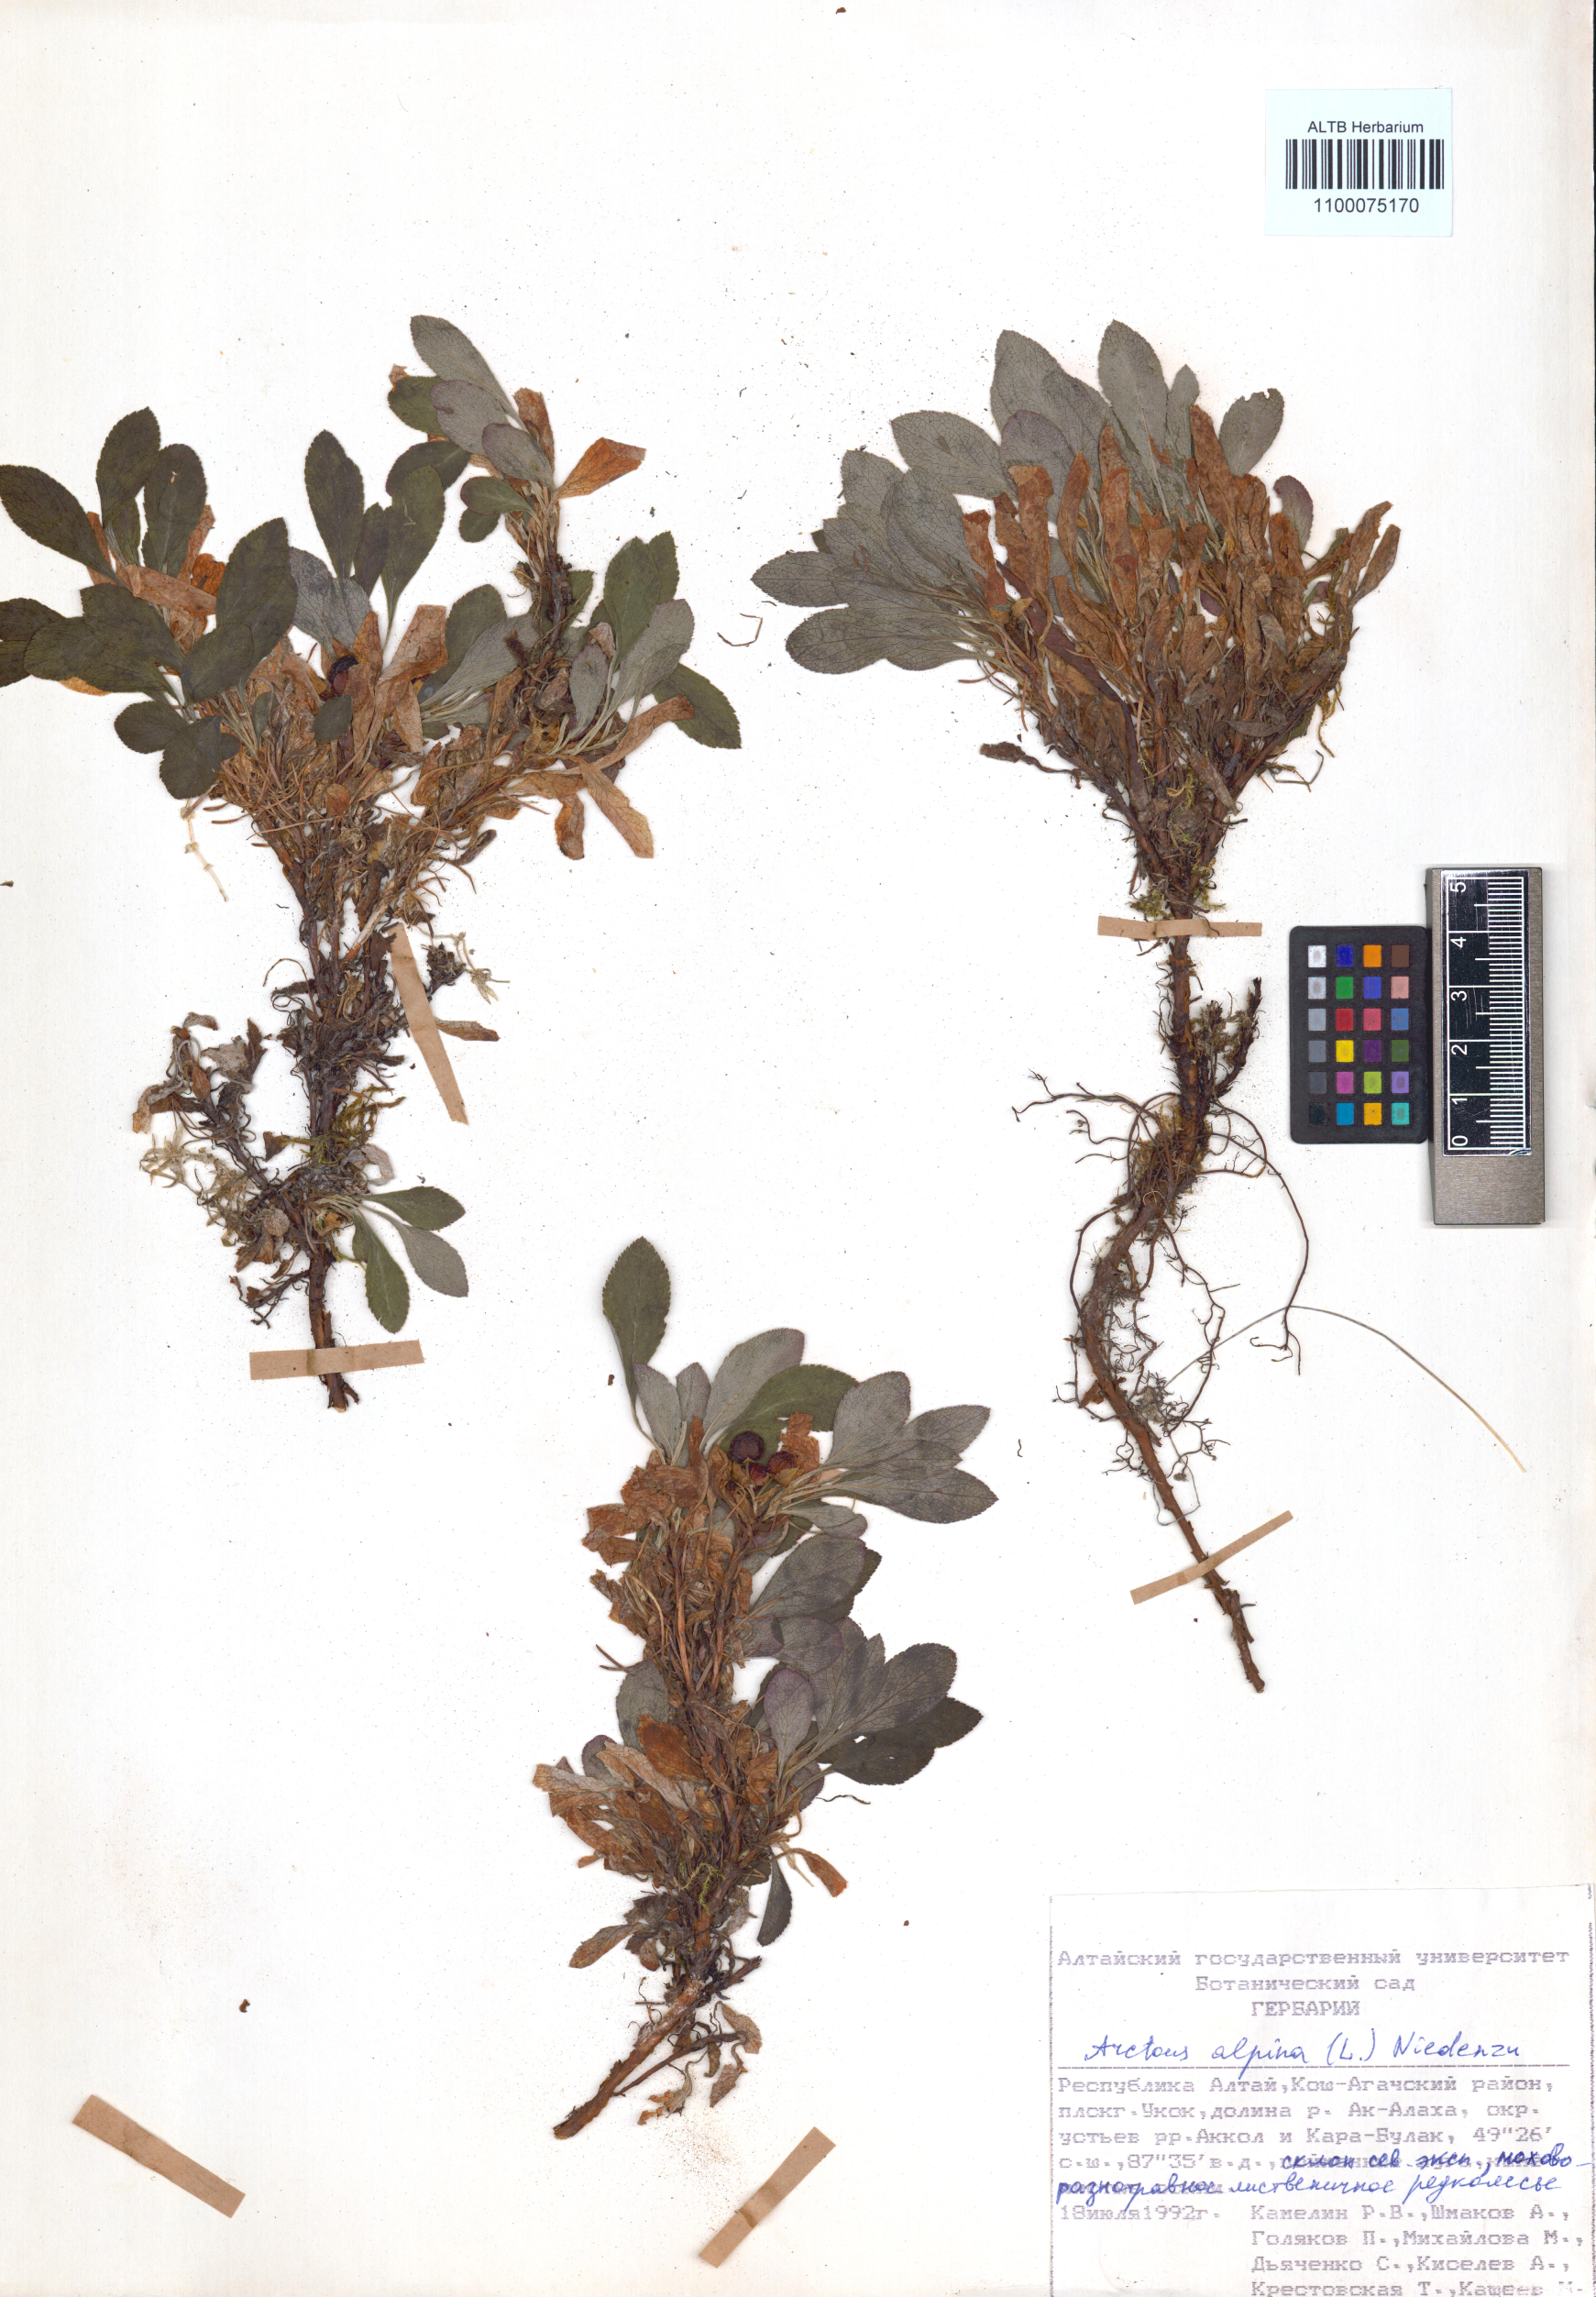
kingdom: Plantae
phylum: Tracheophyta
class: Magnoliopsida
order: Ericales
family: Ericaceae
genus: Arctostaphylos
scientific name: Arctostaphylos alpinus
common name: Alpine bearberry
